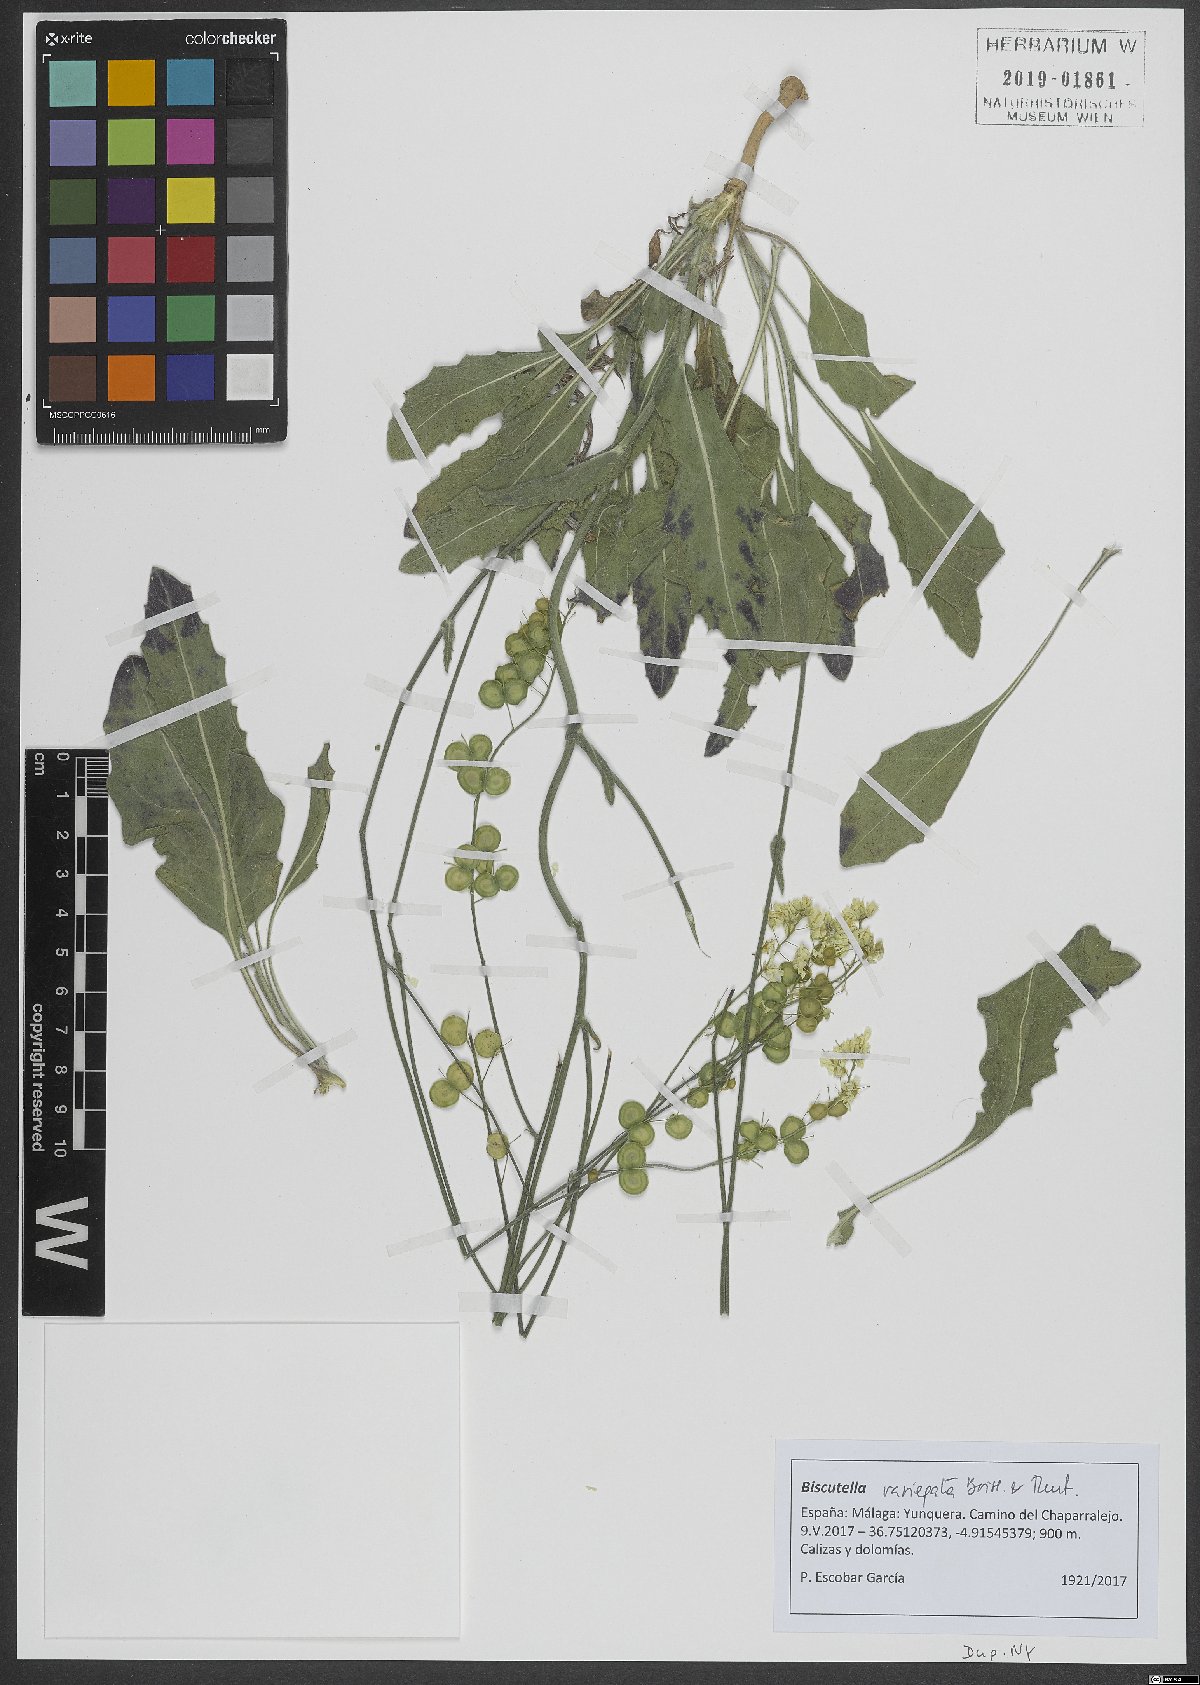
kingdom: Plantae
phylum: Tracheophyta
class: Magnoliopsida
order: Brassicales
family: Brassicaceae
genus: Biscutella
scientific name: Biscutella variegata
